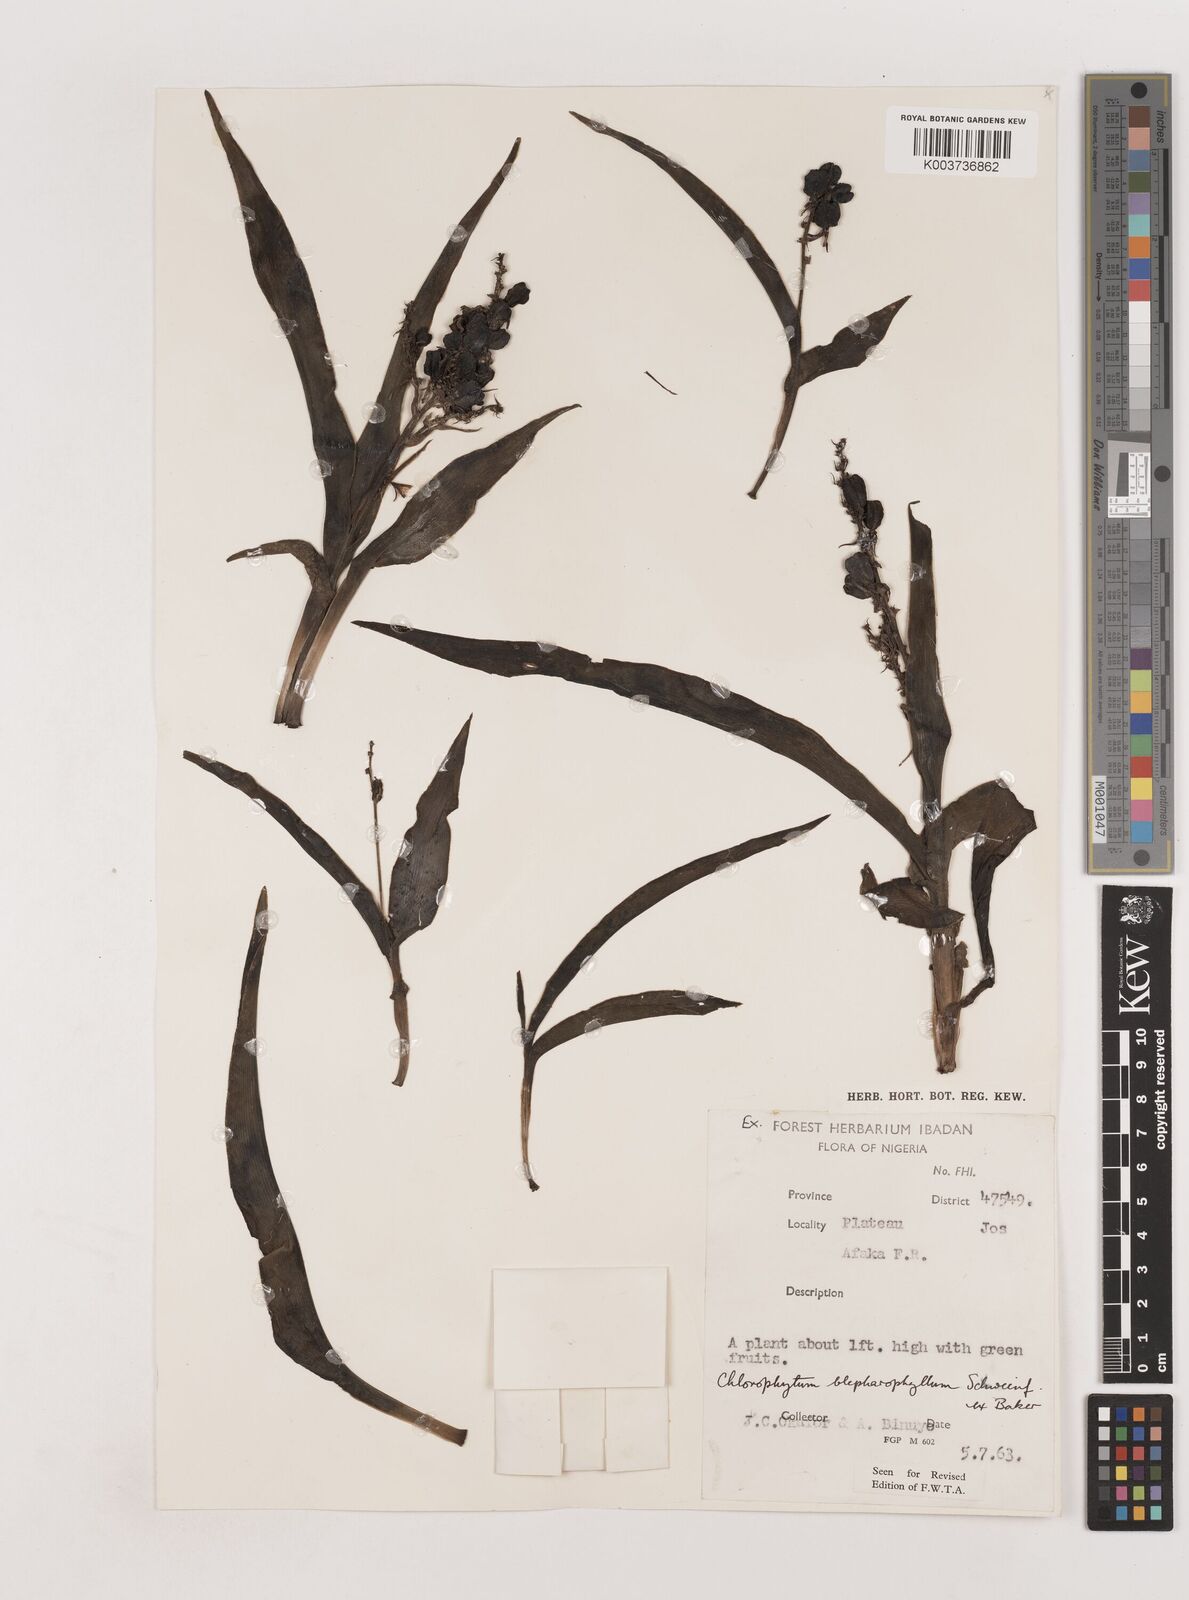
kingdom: Plantae
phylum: Tracheophyta
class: Liliopsida
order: Asparagales
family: Asparagaceae
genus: Chlorophytum
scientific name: Chlorophytum blepharophyllum
